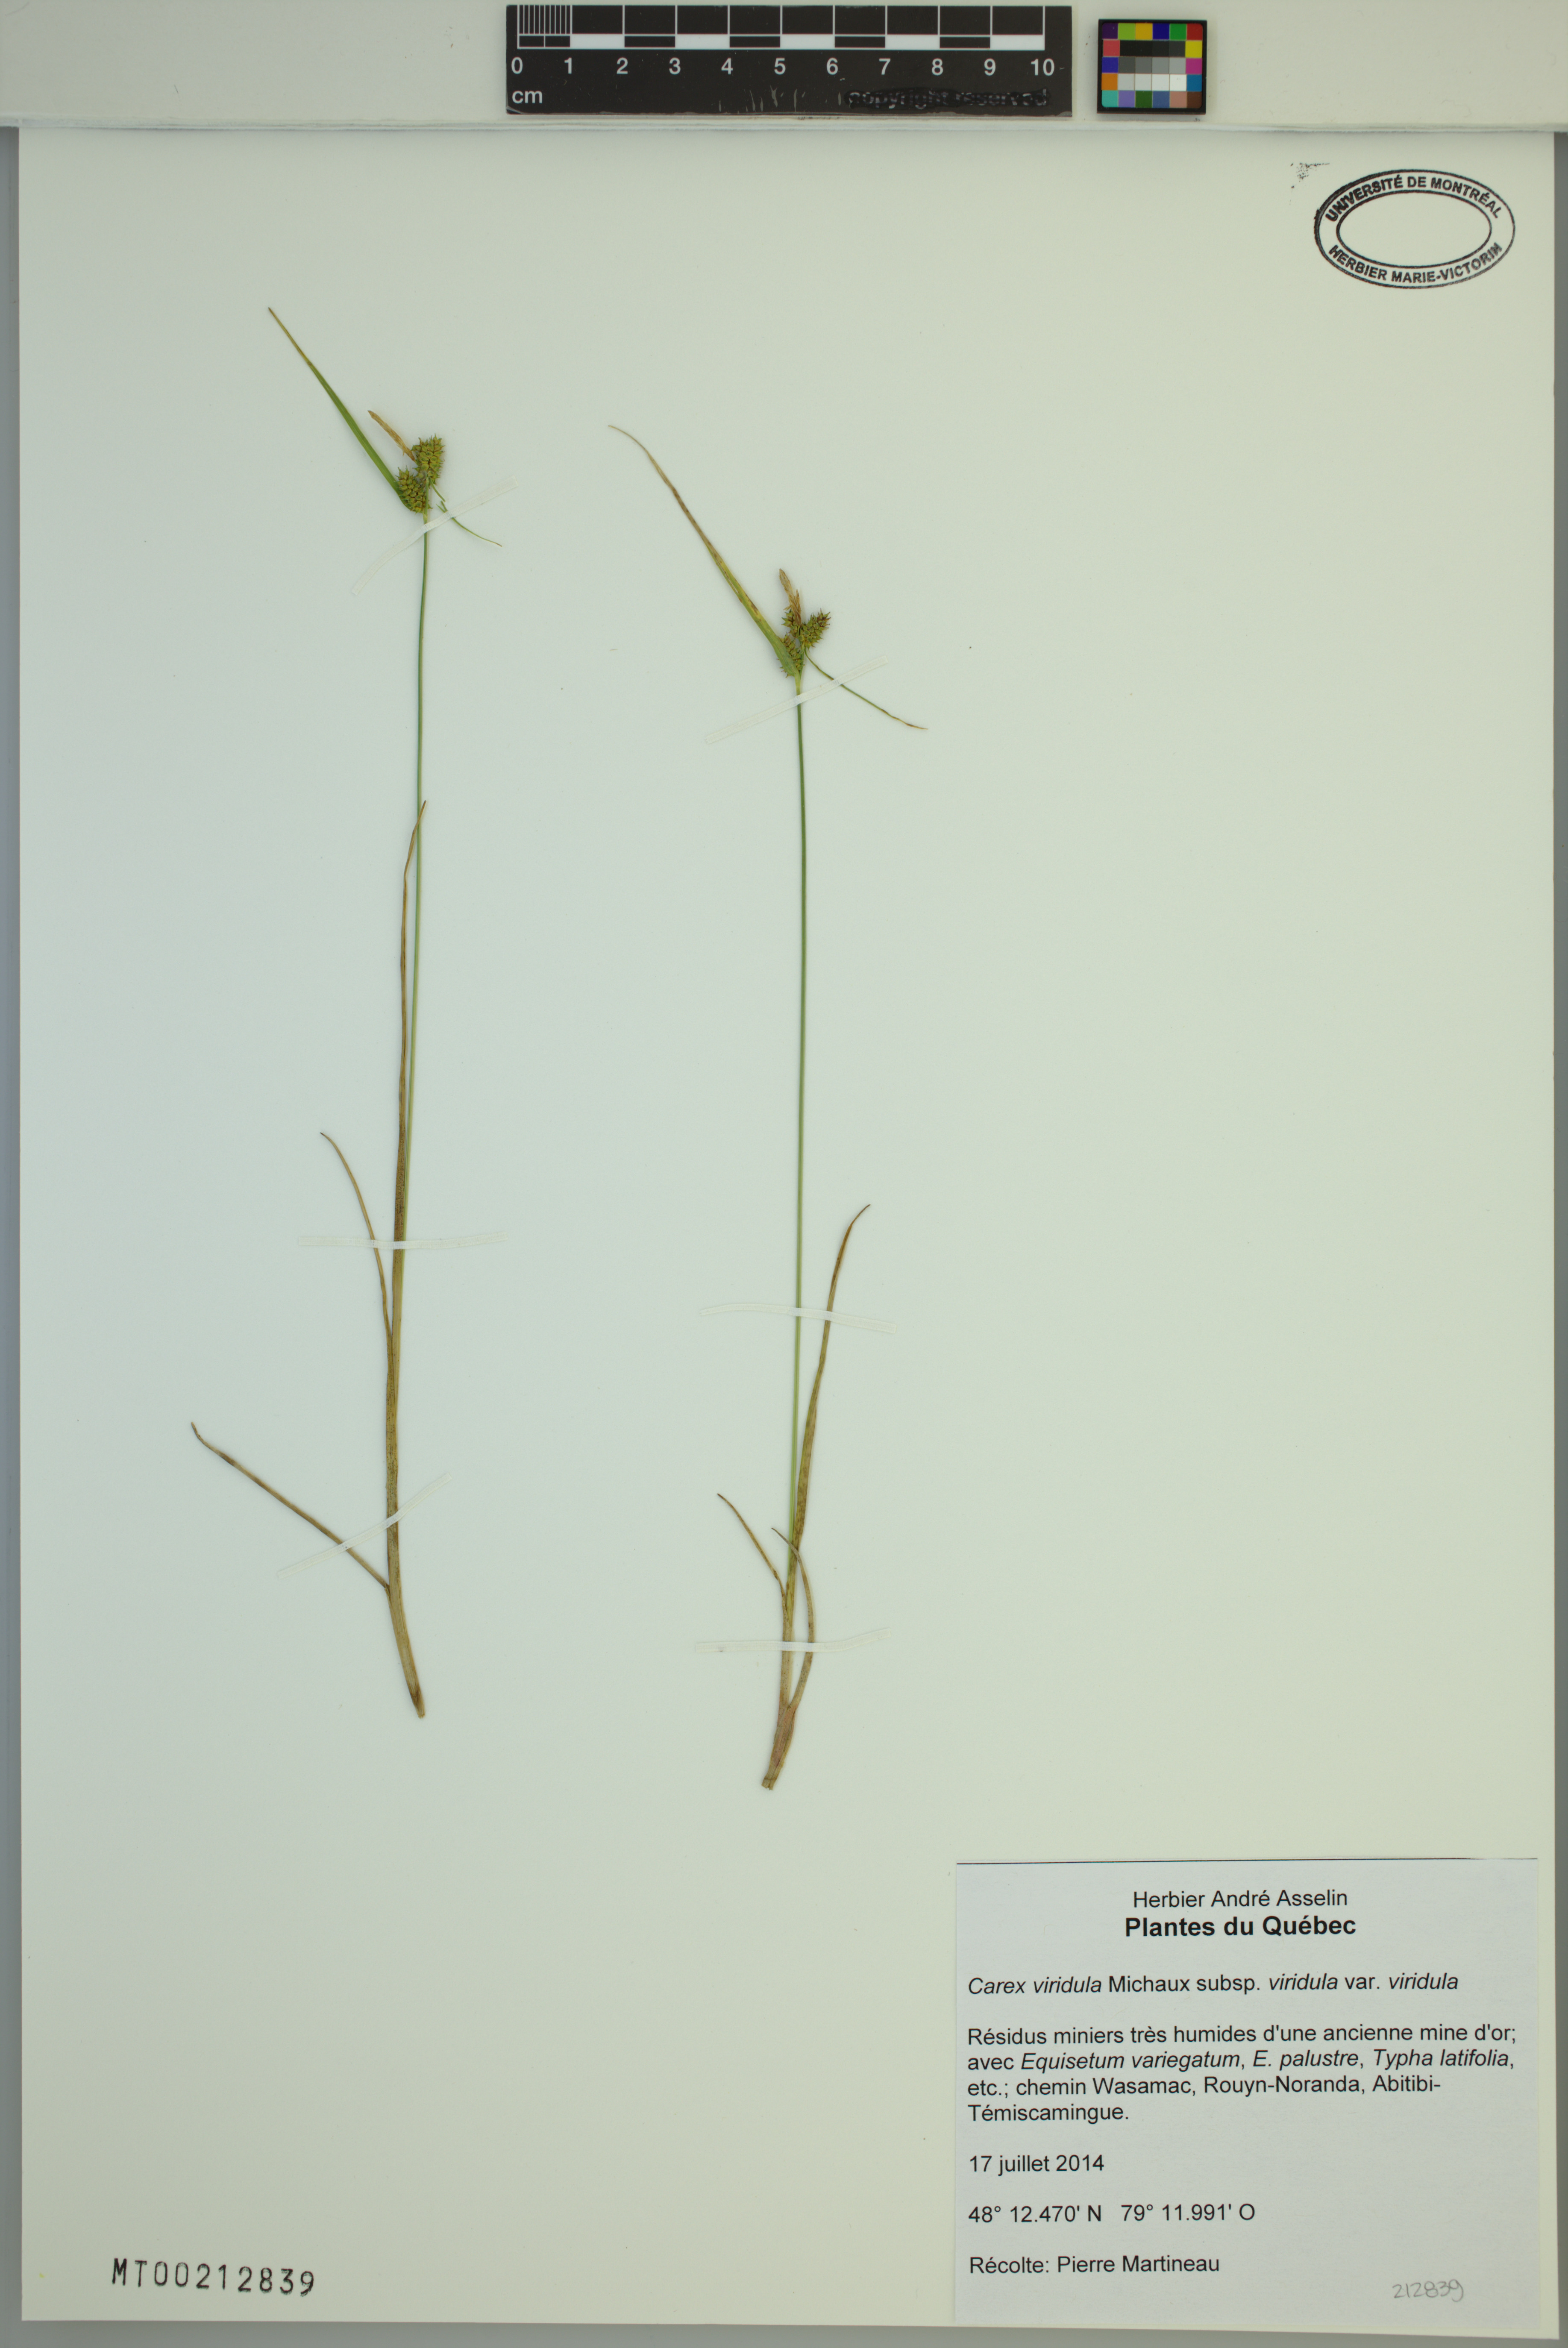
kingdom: Plantae
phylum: Tracheophyta
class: Liliopsida
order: Poales
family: Cyperaceae
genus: Carex
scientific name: Carex oederi
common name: Common & small-fruited yellow-sedge
